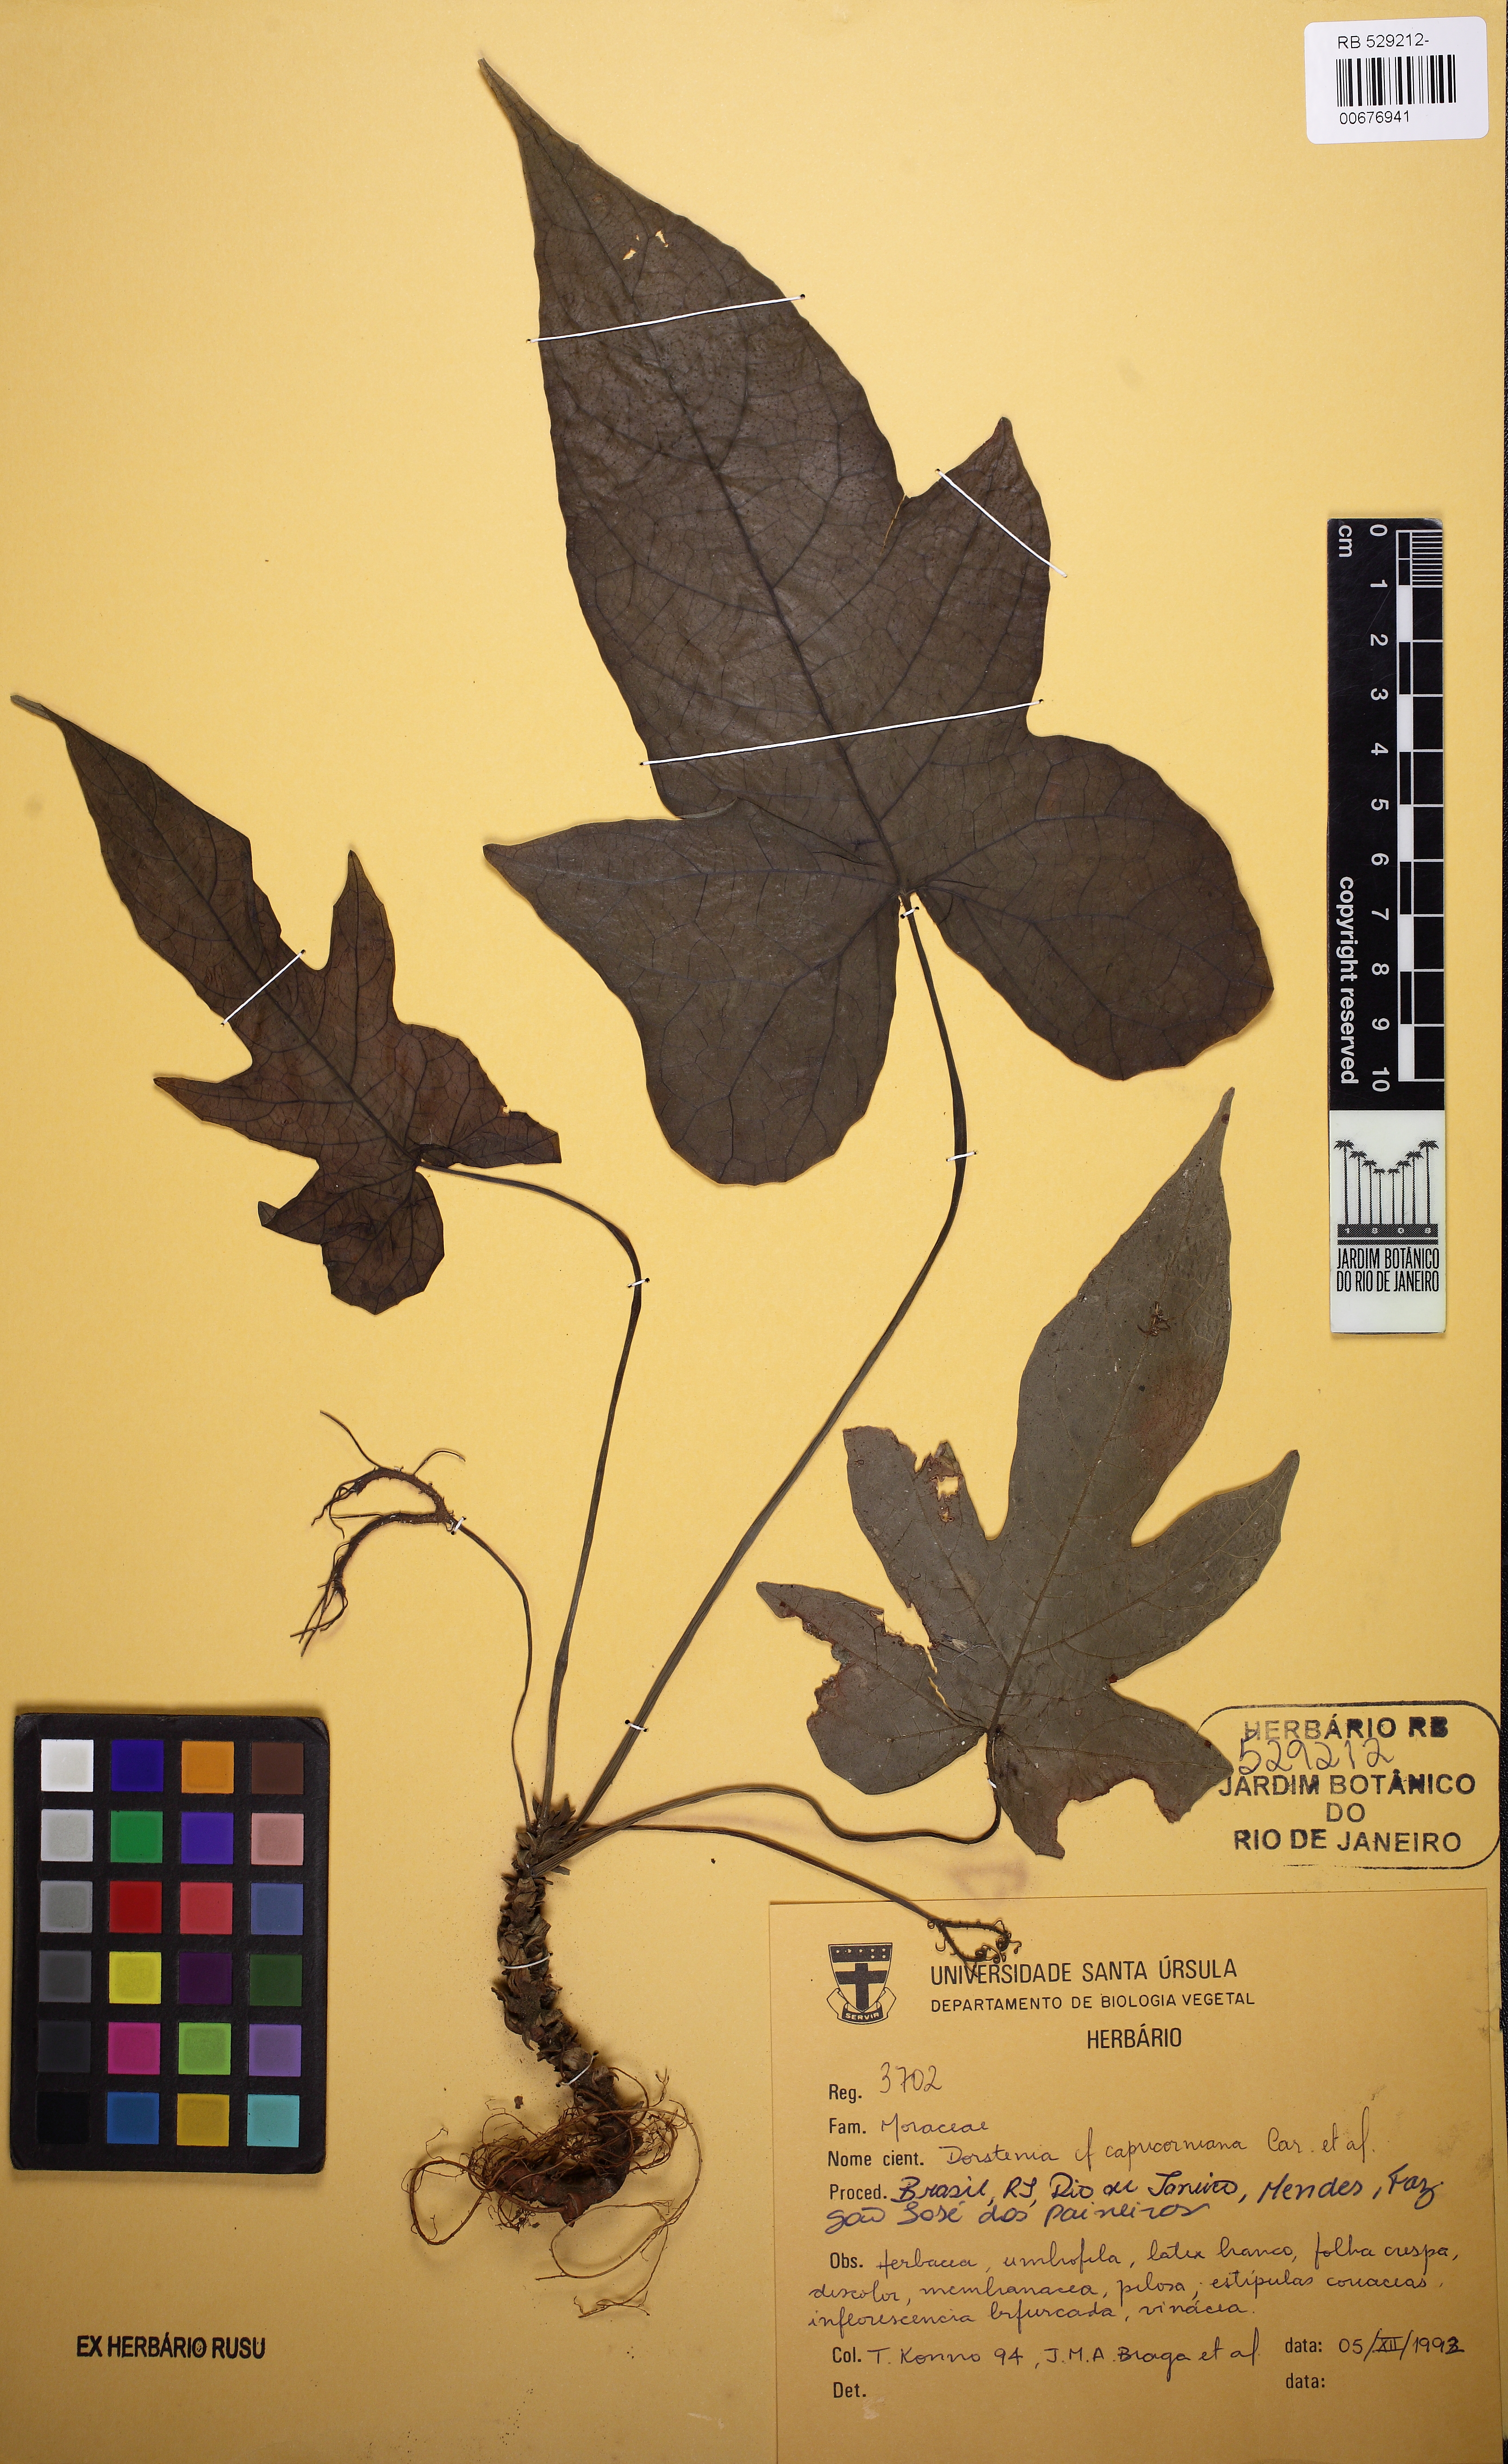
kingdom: Plantae
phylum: Tracheophyta
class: Magnoliopsida
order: Rosales
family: Moraceae
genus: Dorstenia
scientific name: Dorstenia capricorniana
